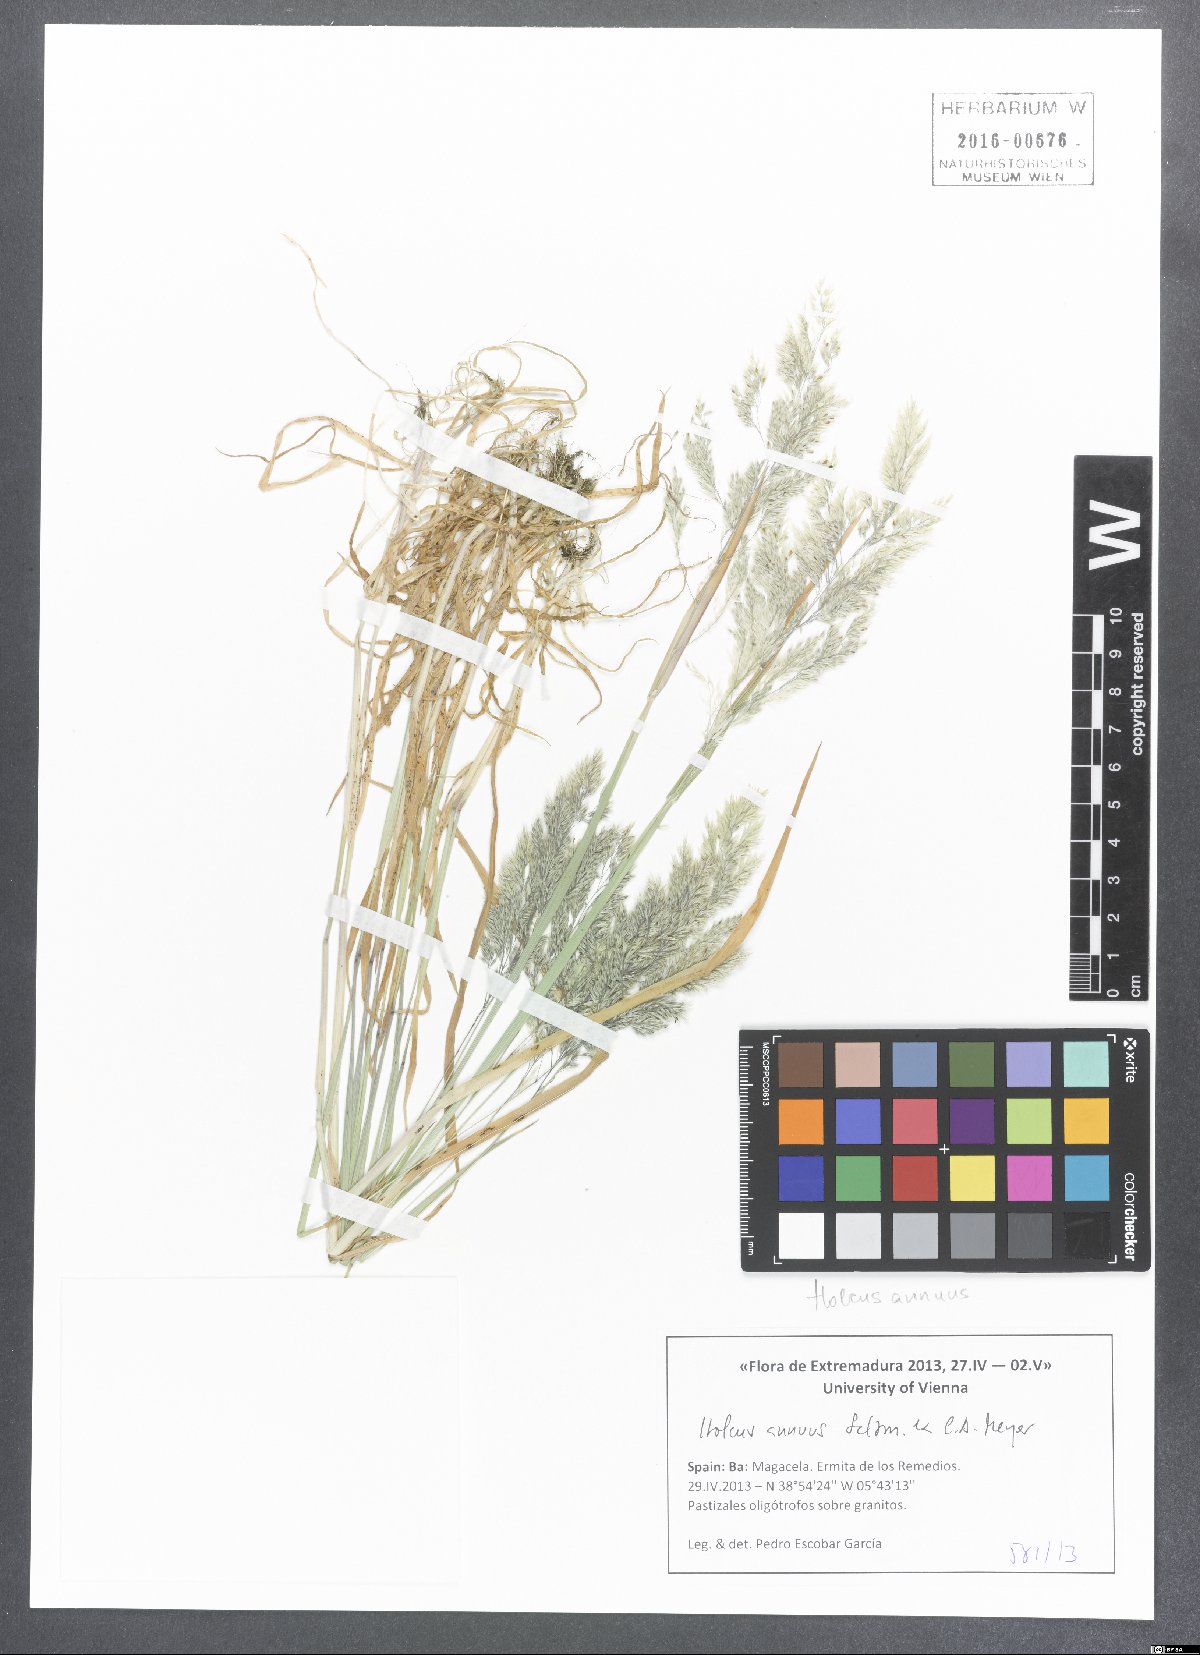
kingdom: Plantae
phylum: Tracheophyta
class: Liliopsida
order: Poales
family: Poaceae
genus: Holcus
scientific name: Holcus annuus
